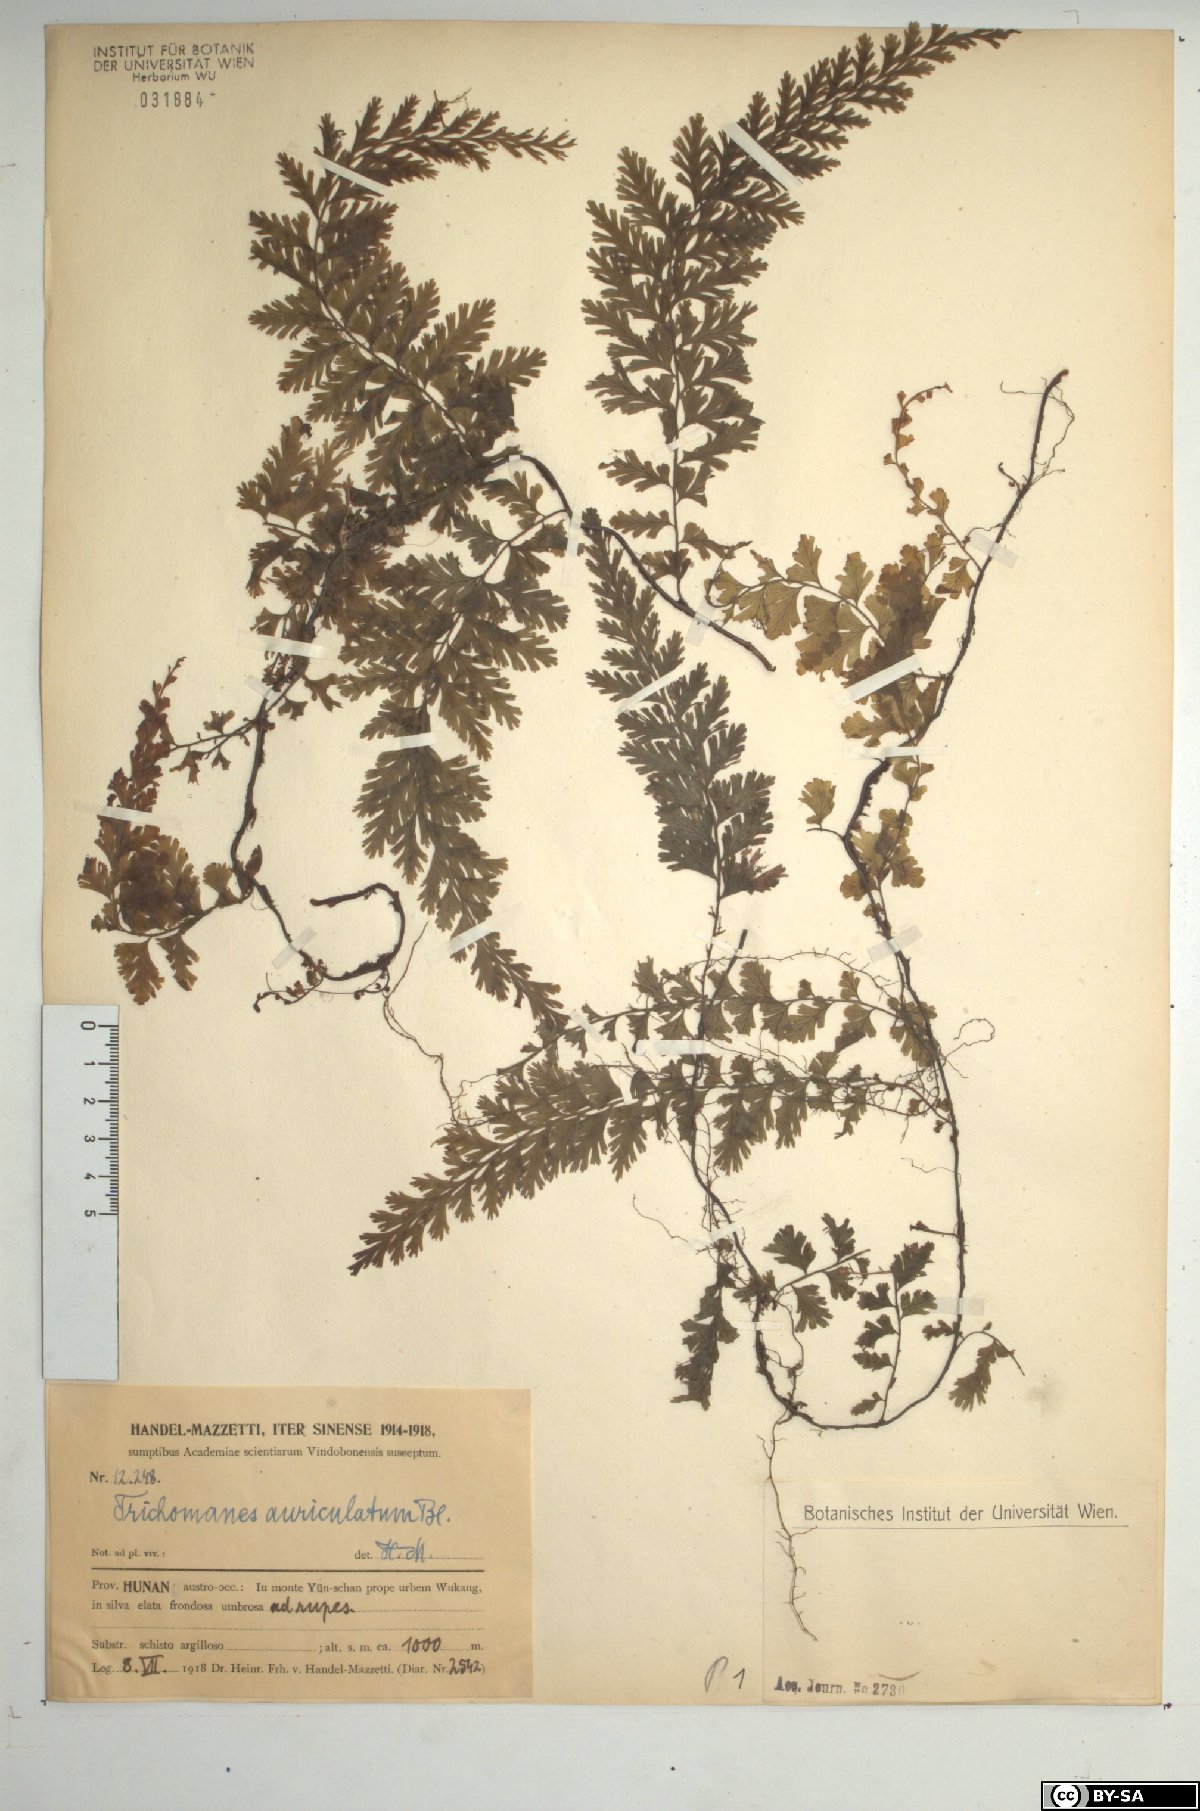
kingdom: Plantae
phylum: Tracheophyta
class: Polypodiopsida
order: Hymenophyllales
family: Hymenophyllaceae
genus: Vandenboschia
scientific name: Vandenboschia auriculata
